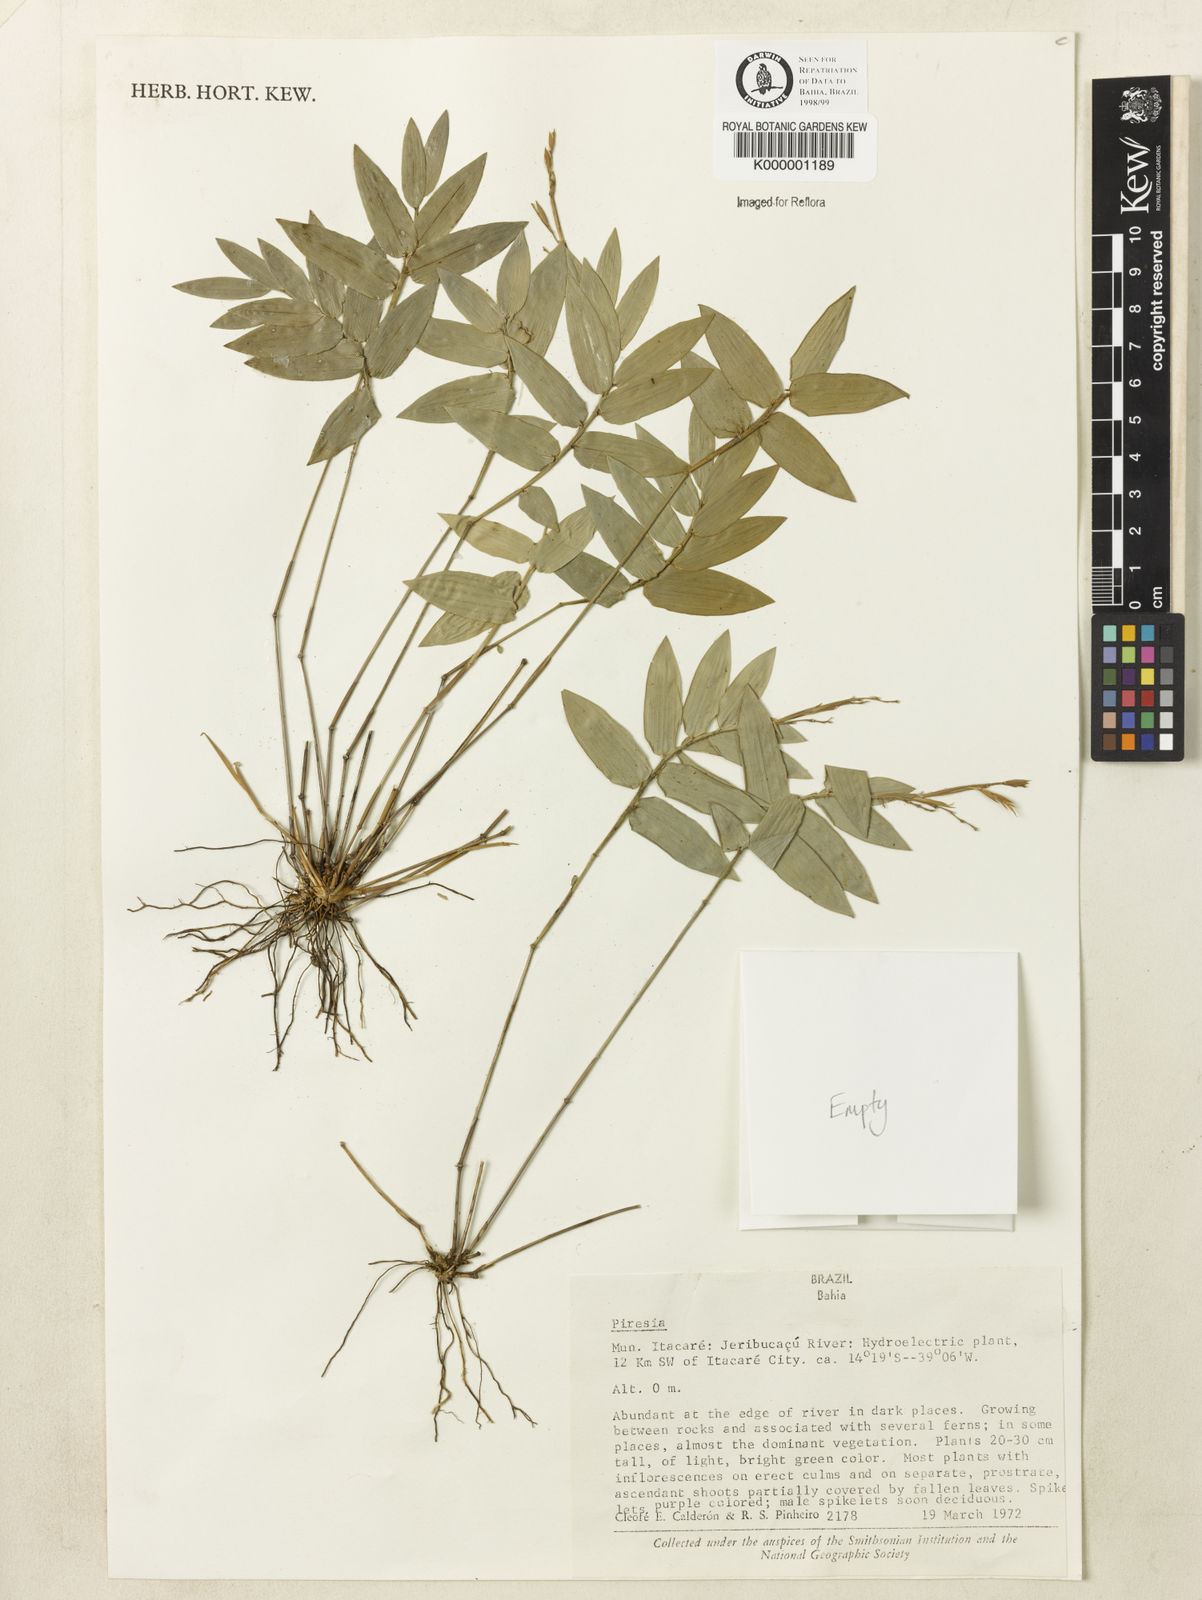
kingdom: Plantae
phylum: Tracheophyta
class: Liliopsida
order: Poales
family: Poaceae
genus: Piresia
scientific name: Piresia
